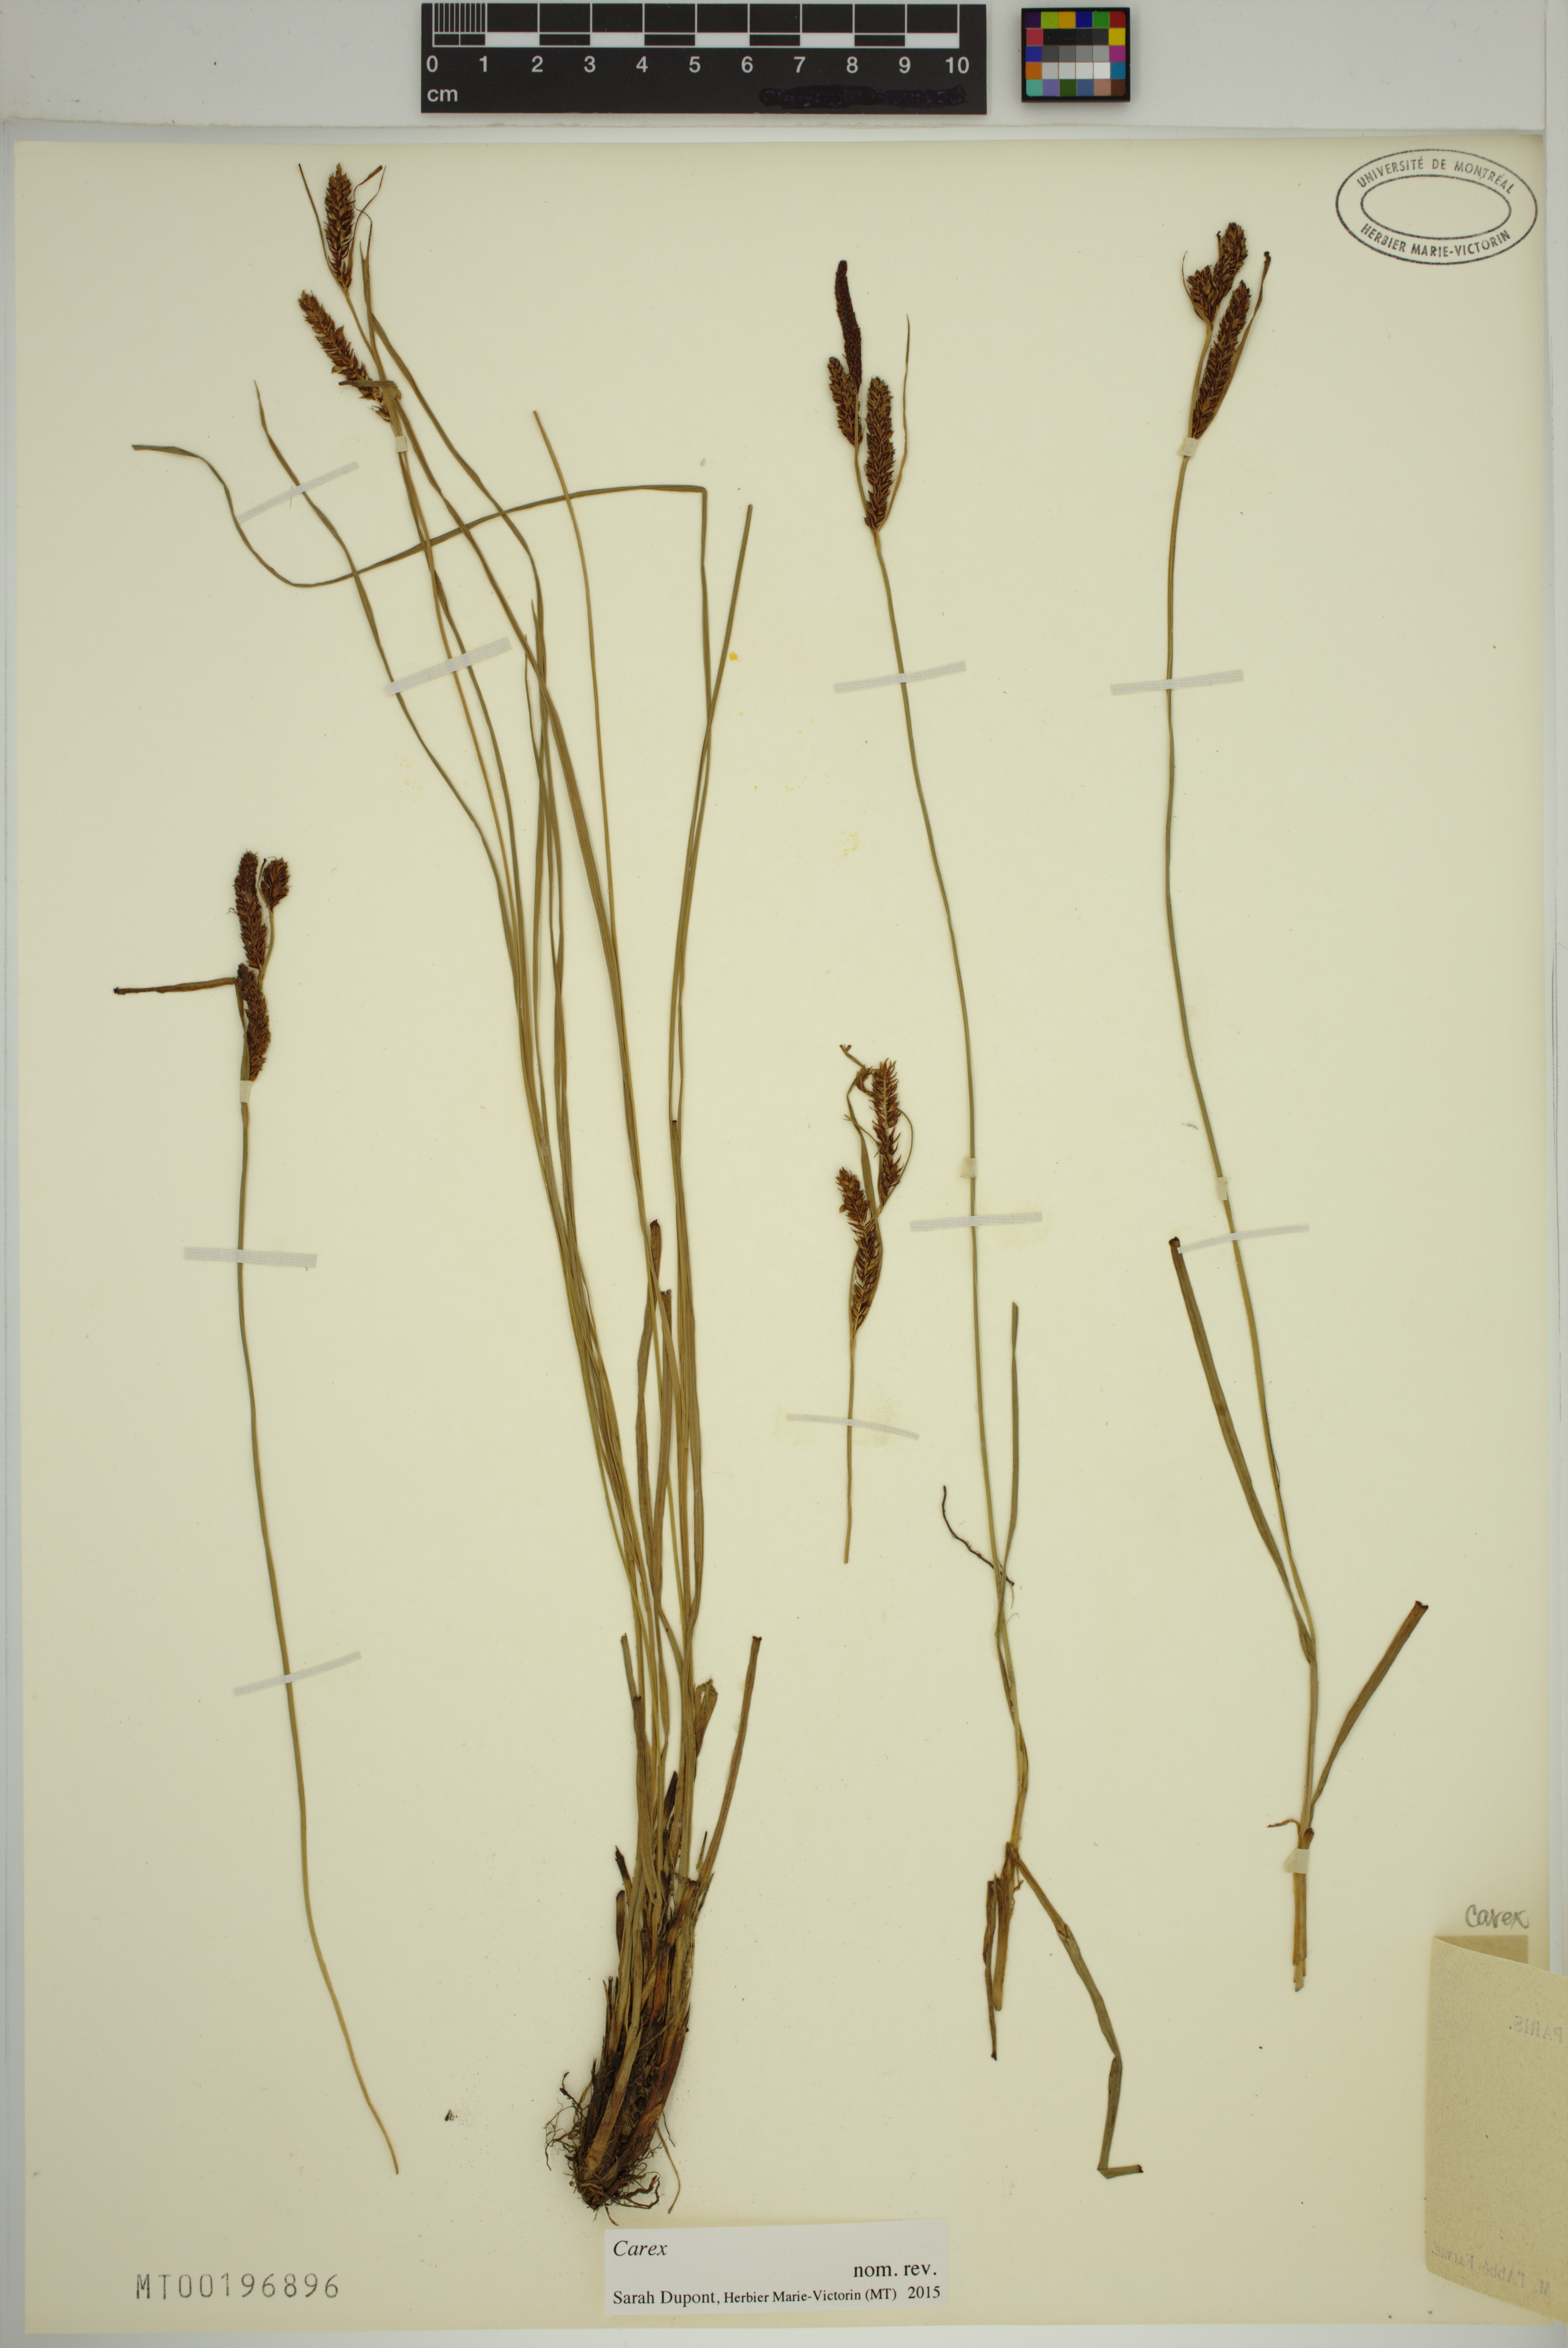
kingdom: Plantae
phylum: Tracheophyta
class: Liliopsida
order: Poales
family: Cyperaceae
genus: Carex
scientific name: Carex
